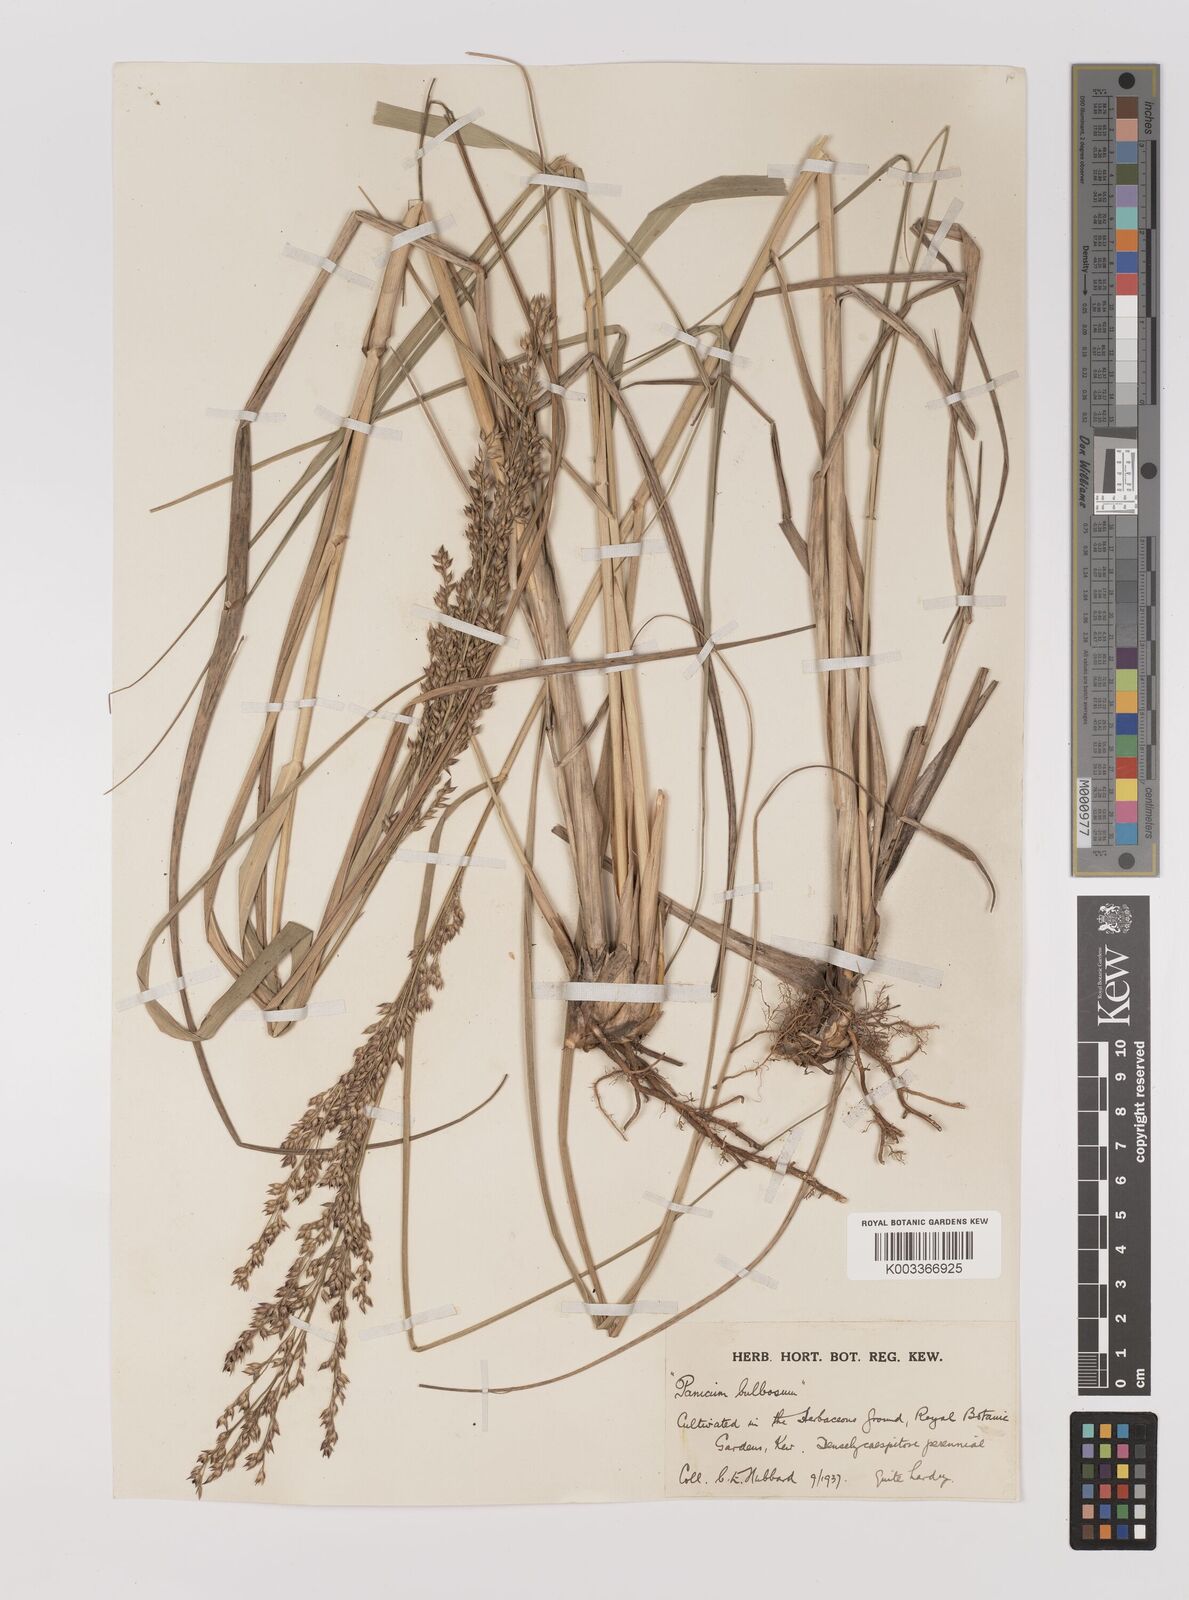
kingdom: Plantae
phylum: Tracheophyta
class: Liliopsida
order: Poales
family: Poaceae
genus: Zuloagaea
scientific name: Zuloagaea bulbosa
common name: Canyon panic grass
